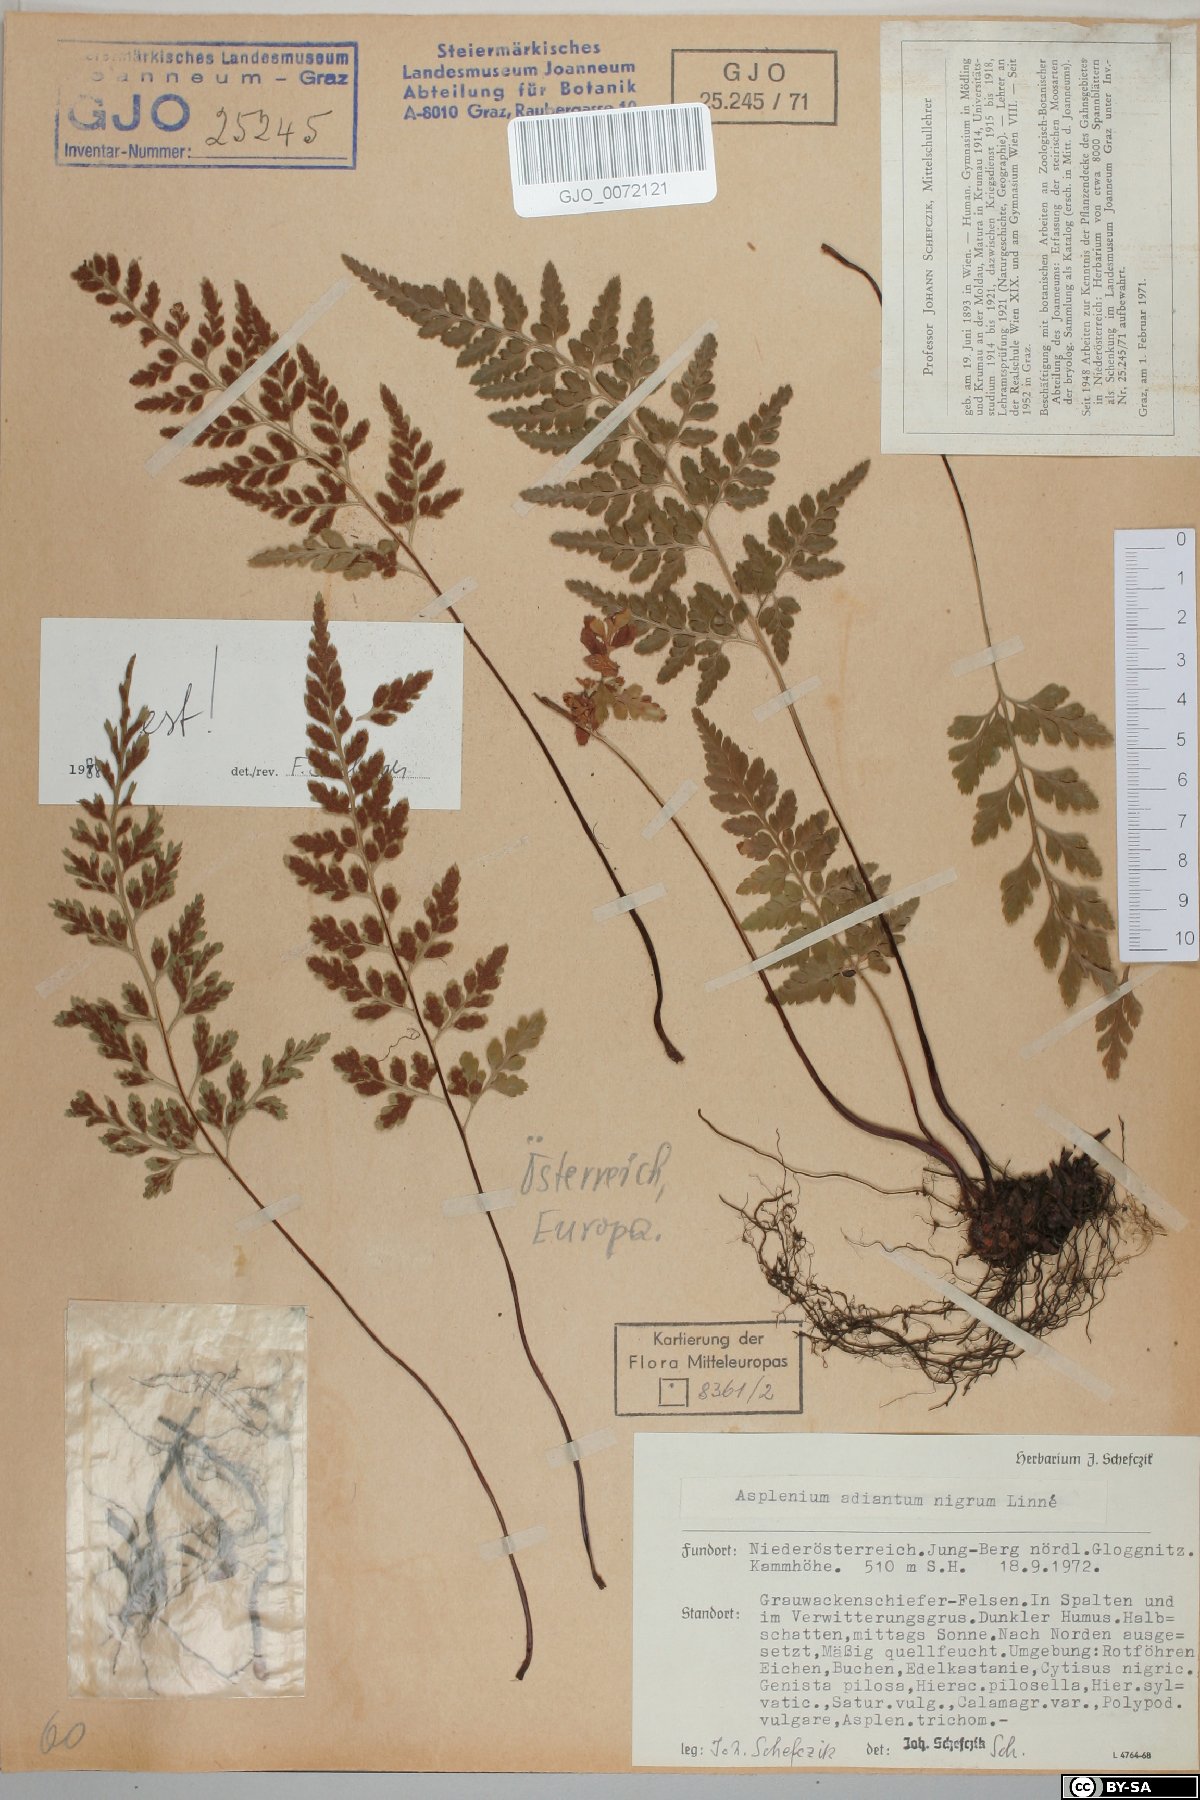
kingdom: Plantae
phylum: Tracheophyta
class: Polypodiopsida
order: Polypodiales
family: Aspleniaceae
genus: Asplenium
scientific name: Asplenium adiantum-nigrum
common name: Black spleenwort
